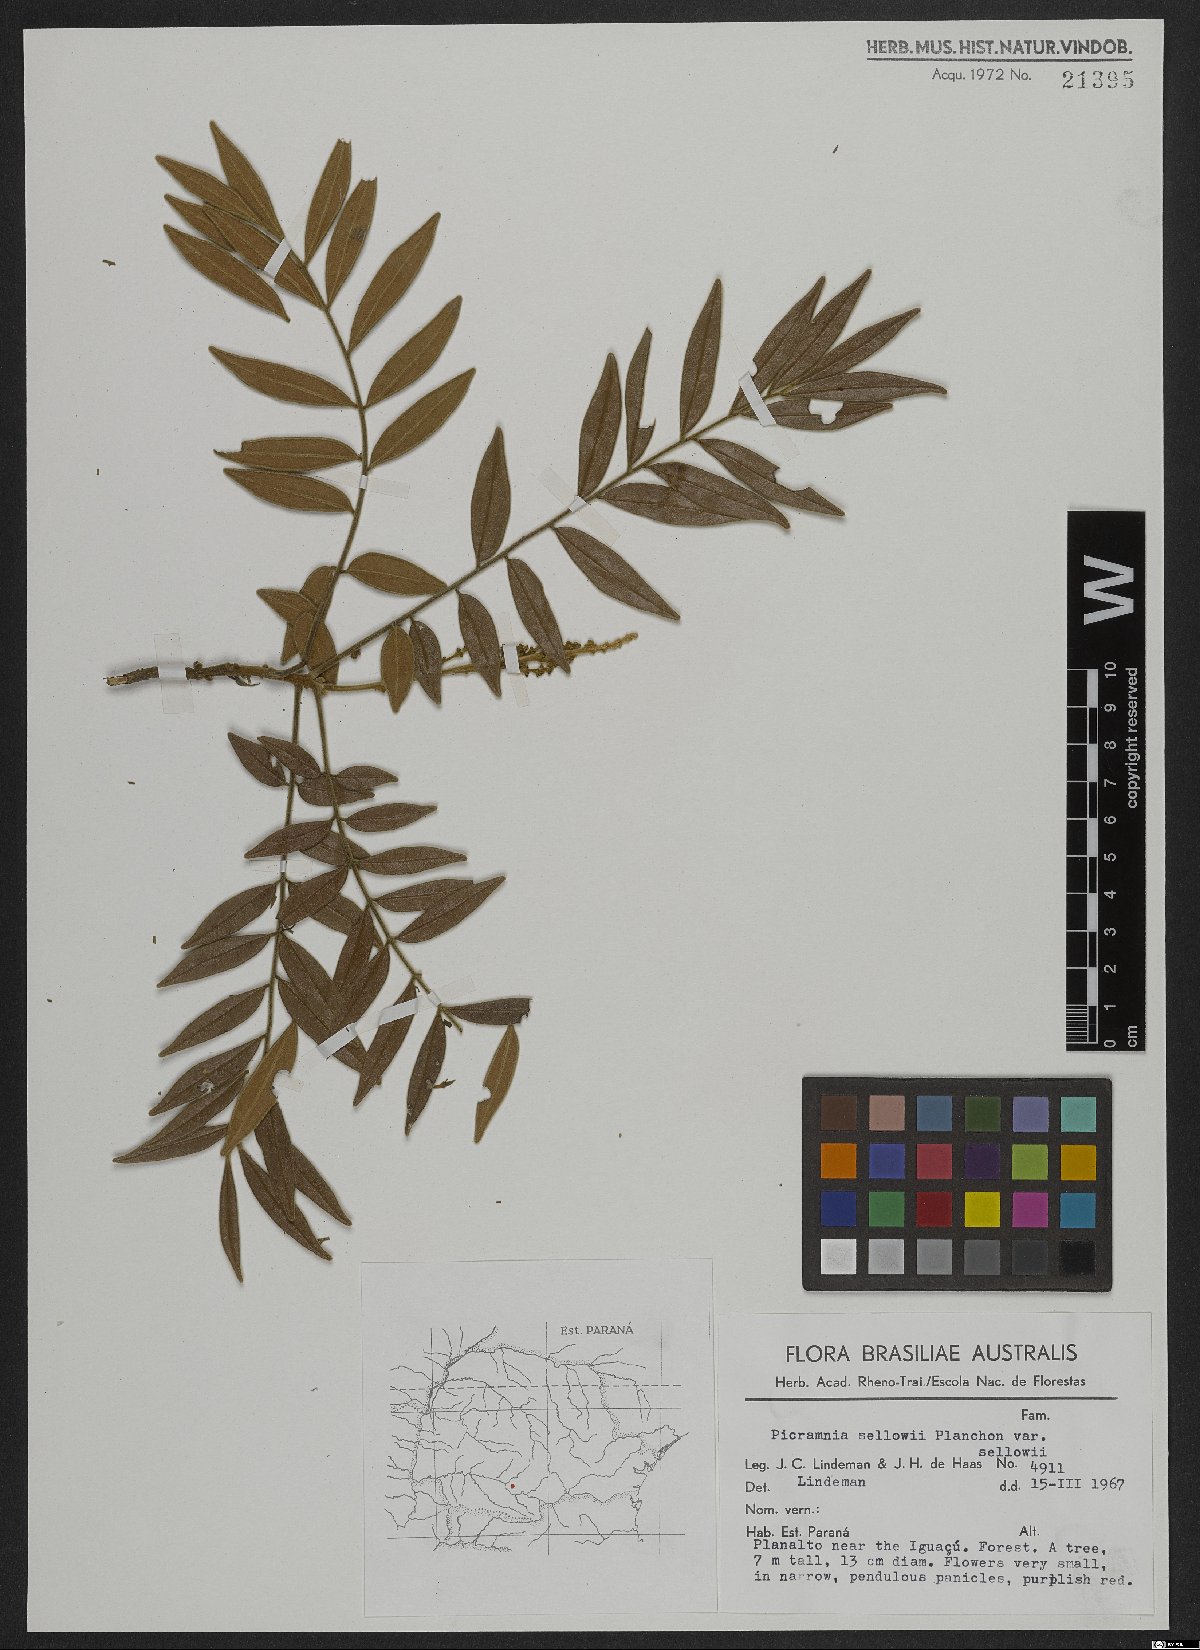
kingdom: Plantae
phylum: Tracheophyta
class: Magnoliopsida
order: Picramniales
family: Picramniaceae
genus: Picramnia
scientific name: Picramnia sellowii
